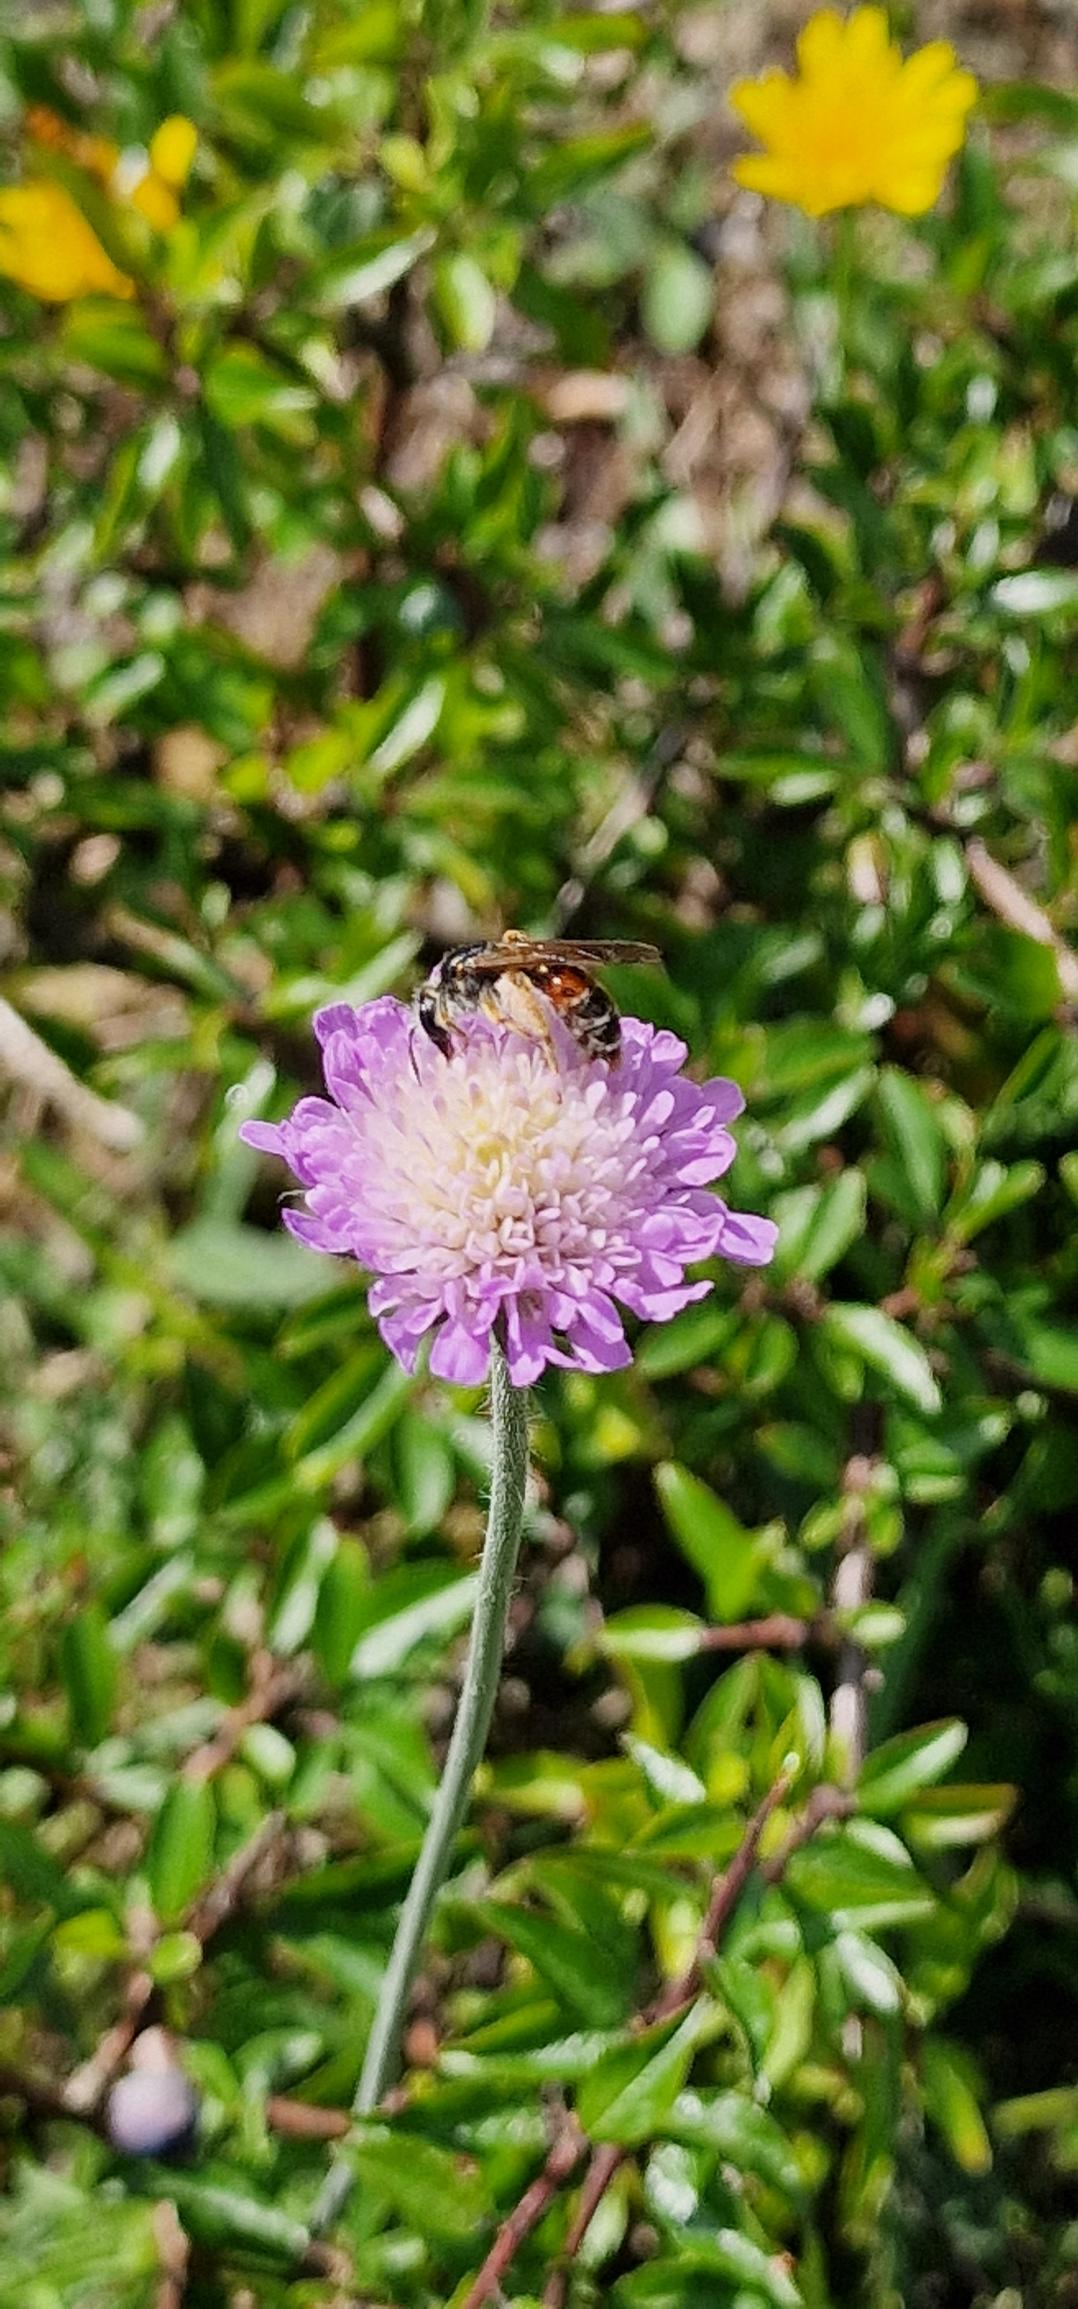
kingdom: Plantae
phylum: Tracheophyta
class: Magnoliopsida
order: Dipsacales
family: Caprifoliaceae
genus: Knautia
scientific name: Knautia arvensis
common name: Blåhat
